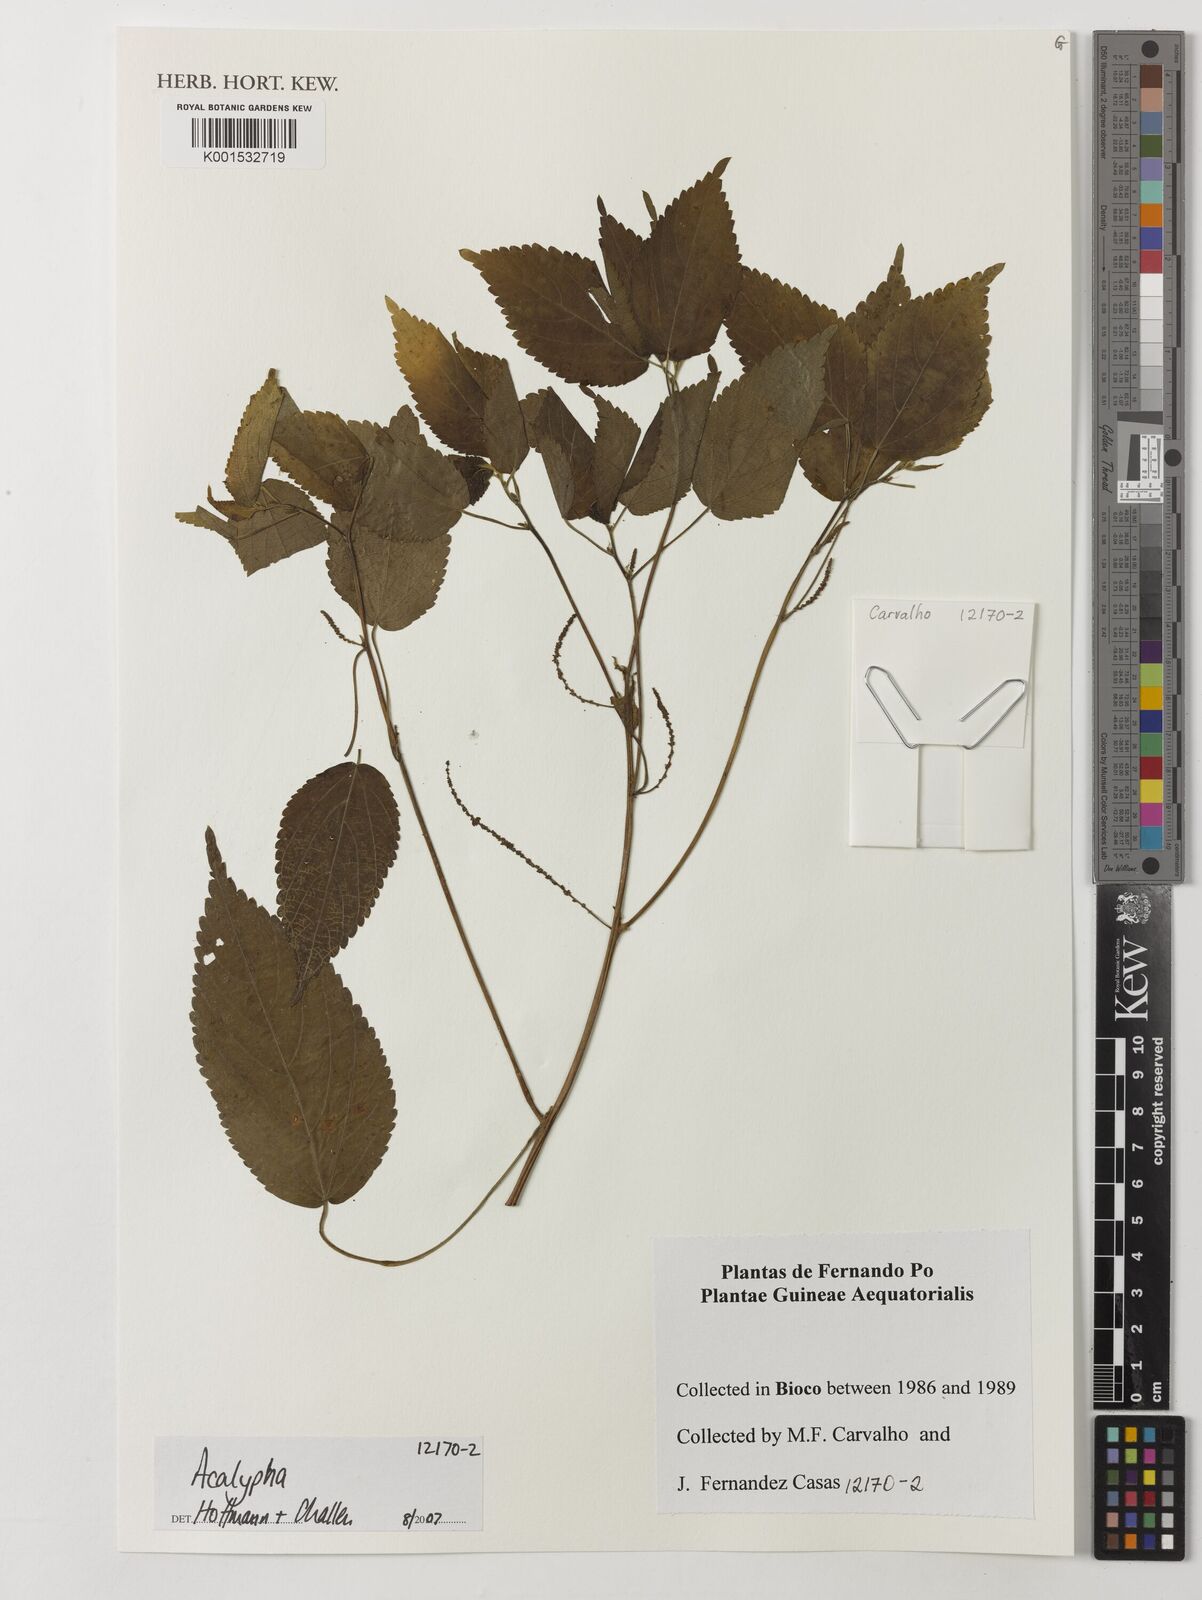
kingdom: Plantae
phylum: Tracheophyta
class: Magnoliopsida
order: Malpighiales
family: Euphorbiaceae
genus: Acalypha
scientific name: Acalypha
